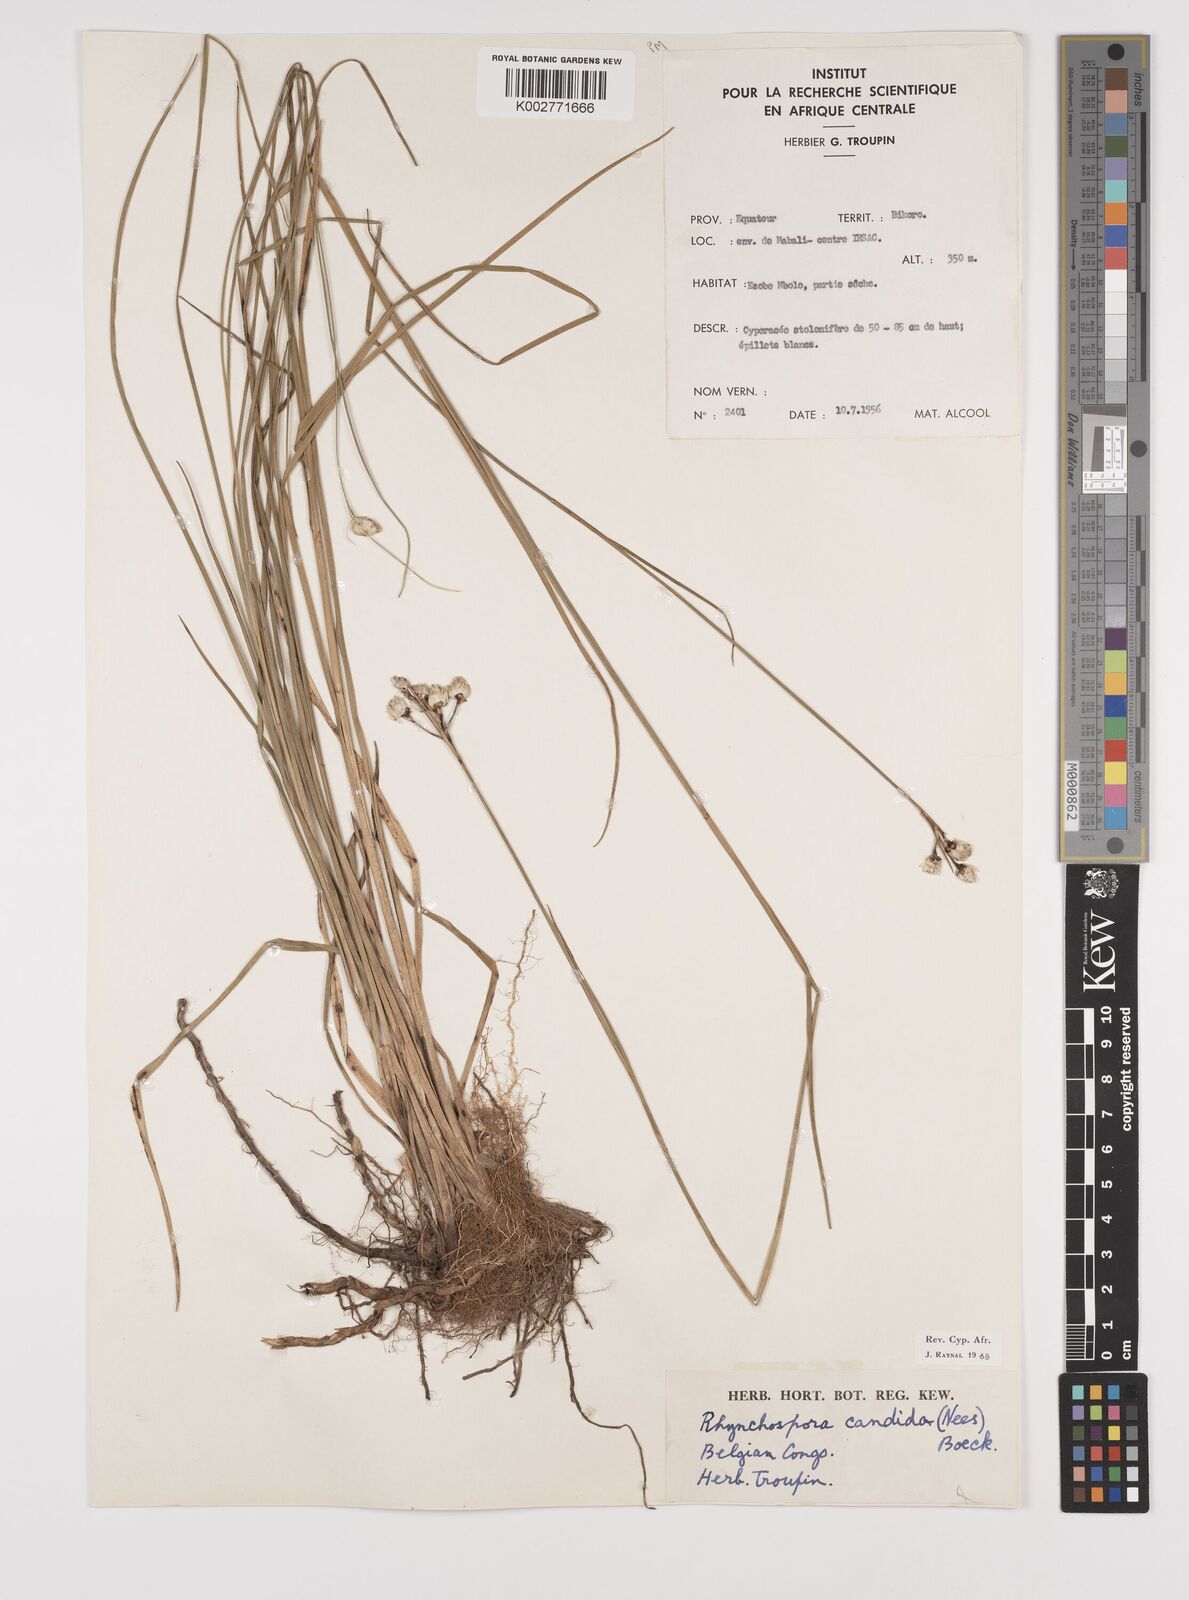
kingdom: Plantae
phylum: Tracheophyta
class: Liliopsida
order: Poales
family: Cyperaceae
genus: Rhynchospora
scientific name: Rhynchospora candida
